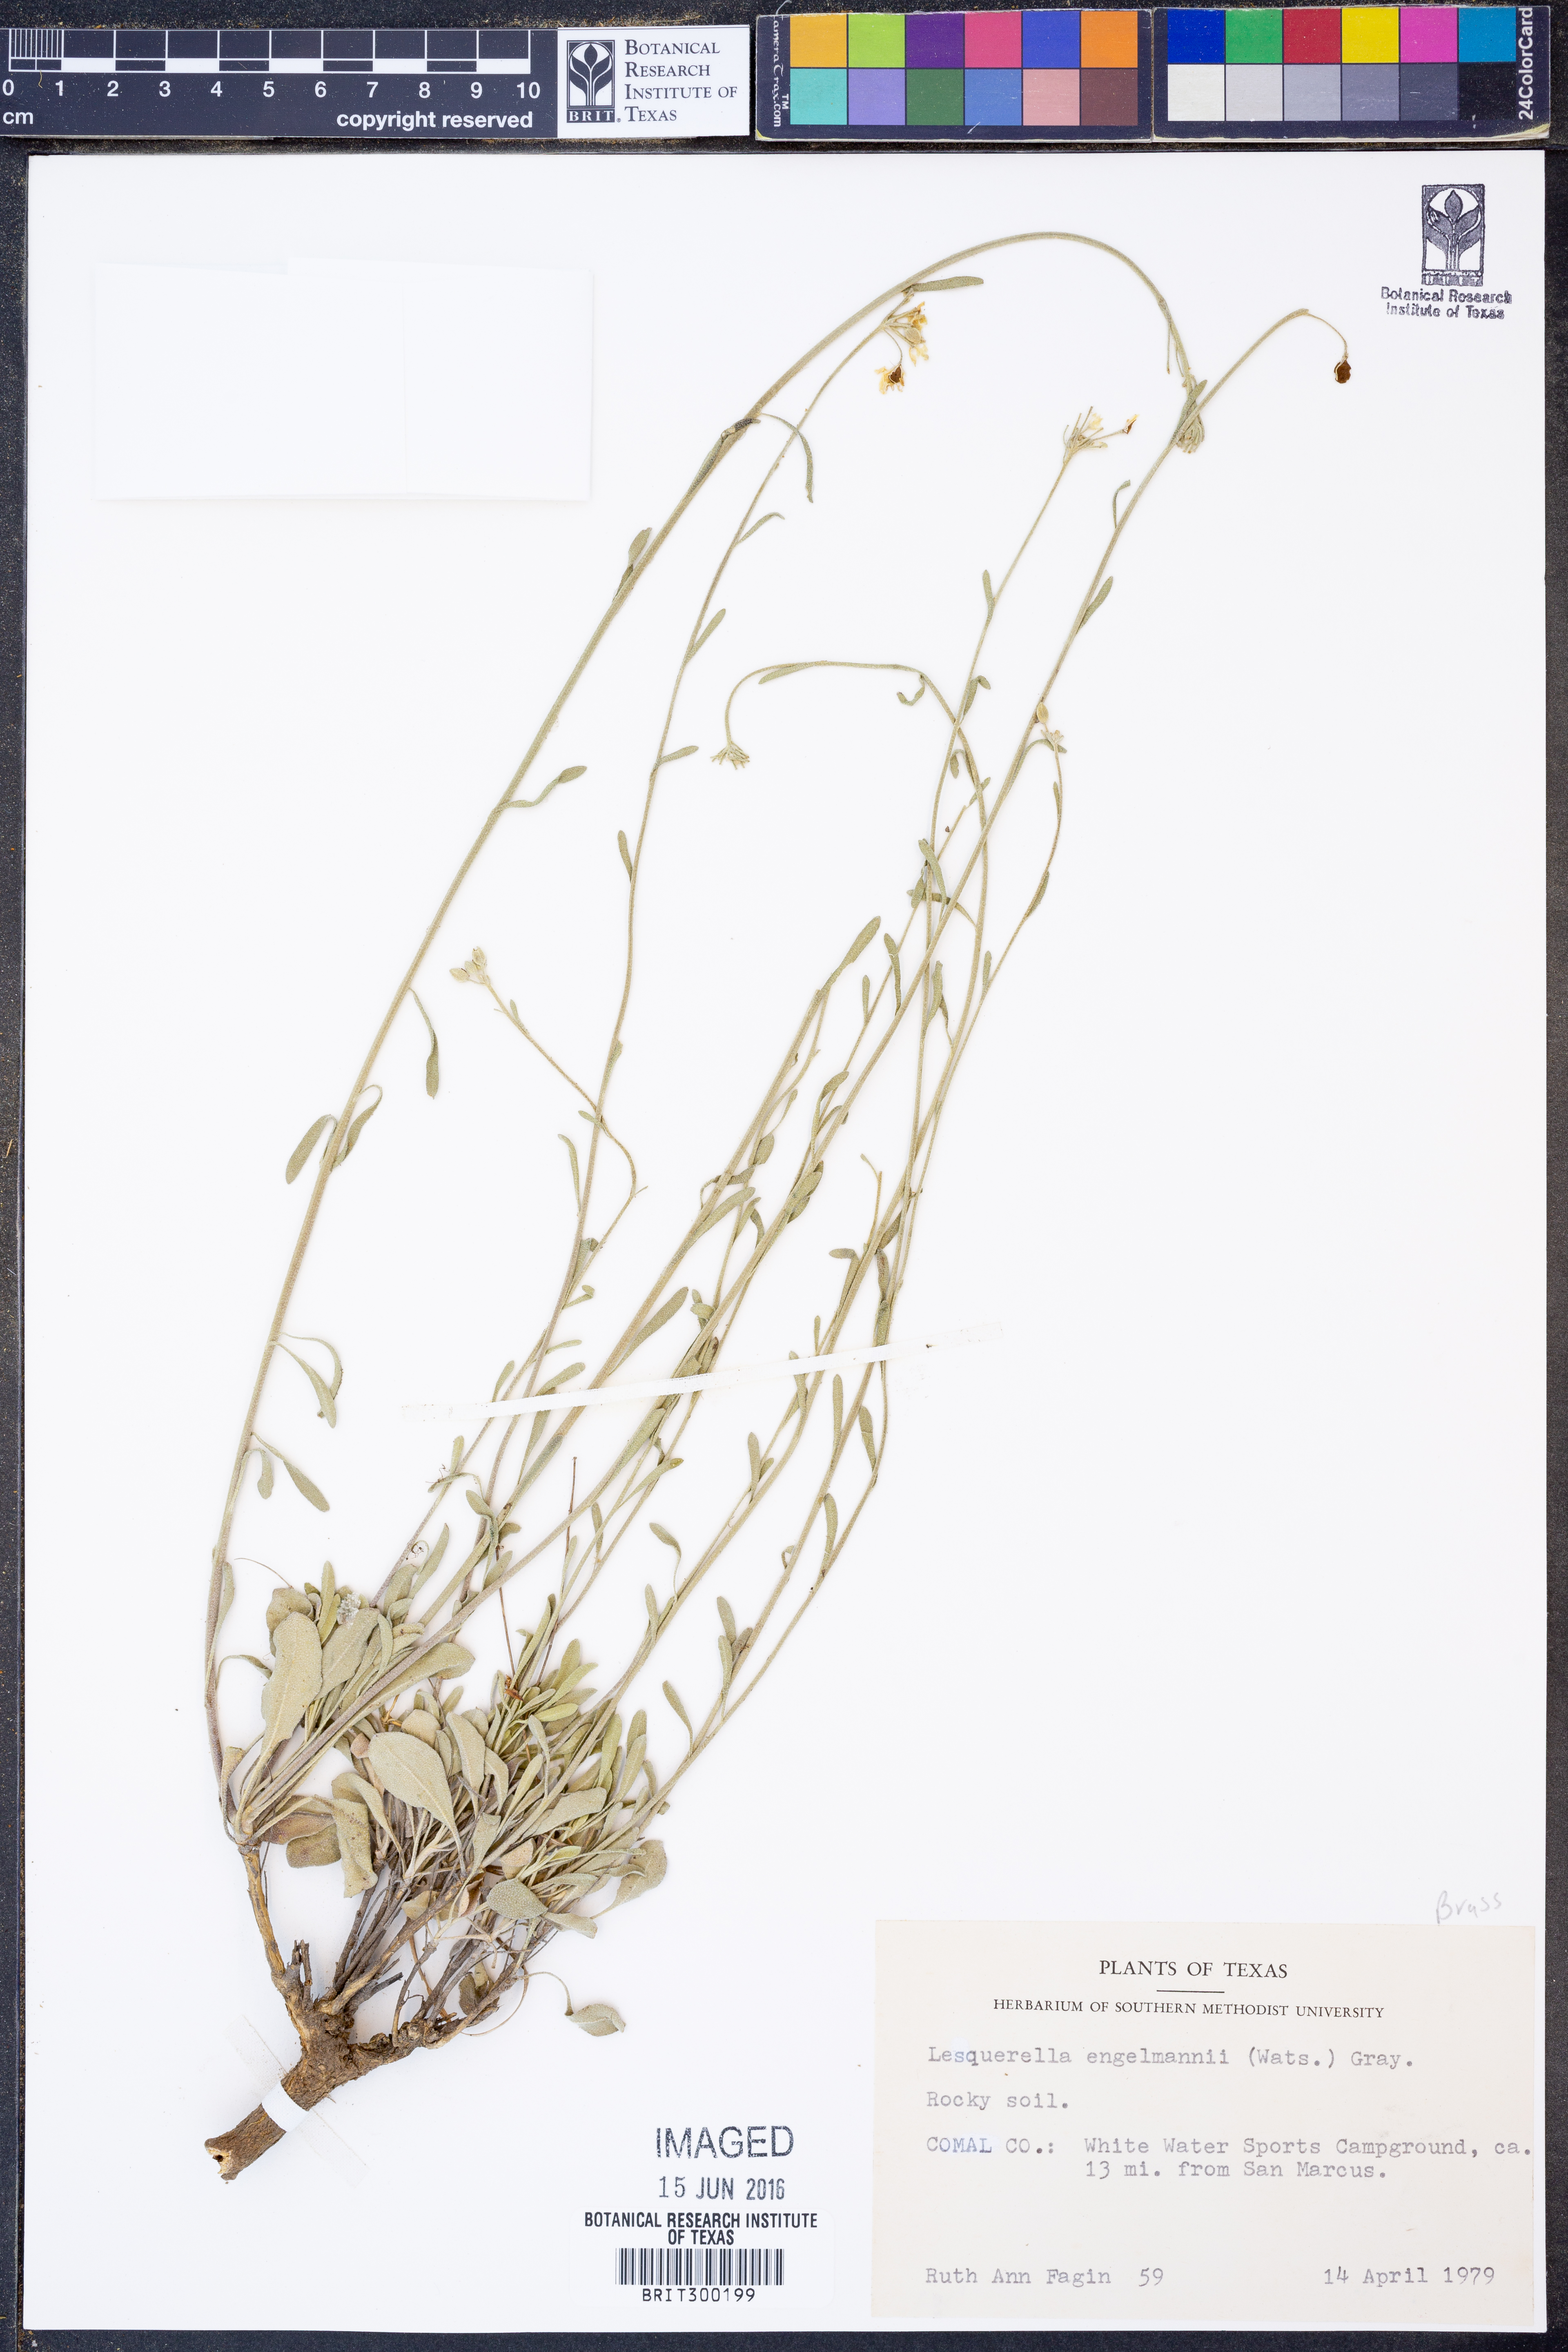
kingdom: Plantae
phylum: Tracheophyta
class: Magnoliopsida
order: Brassicales
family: Brassicaceae
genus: Physaria
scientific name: Physaria engelmannii
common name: Engelmann's bladderpod
